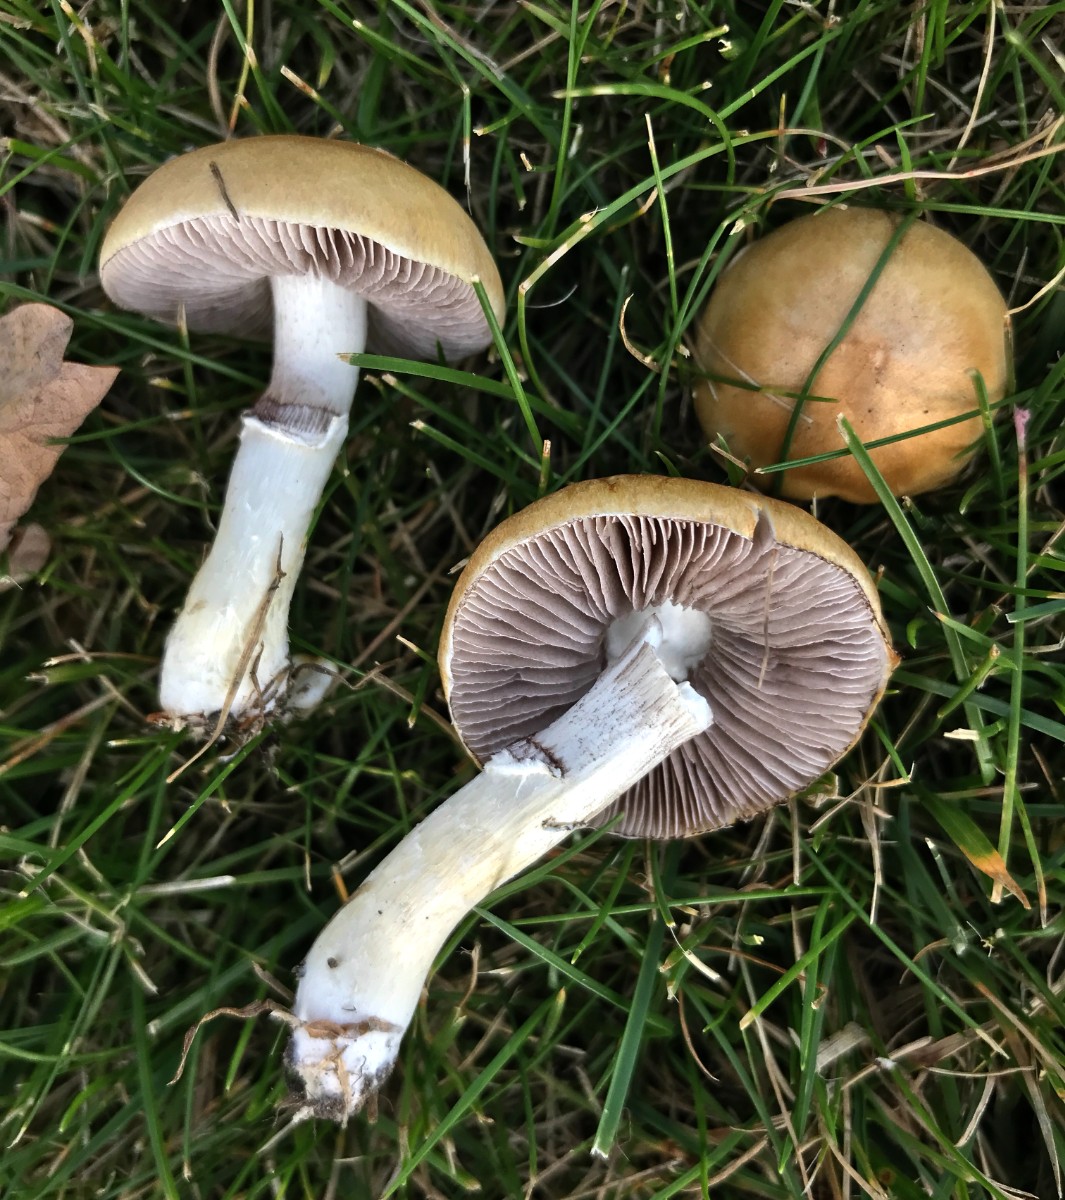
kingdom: Fungi
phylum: Basidiomycota
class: Agaricomycetes
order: Agaricales
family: Hymenogastraceae
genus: Psilocybe
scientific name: Psilocybe coronilla
